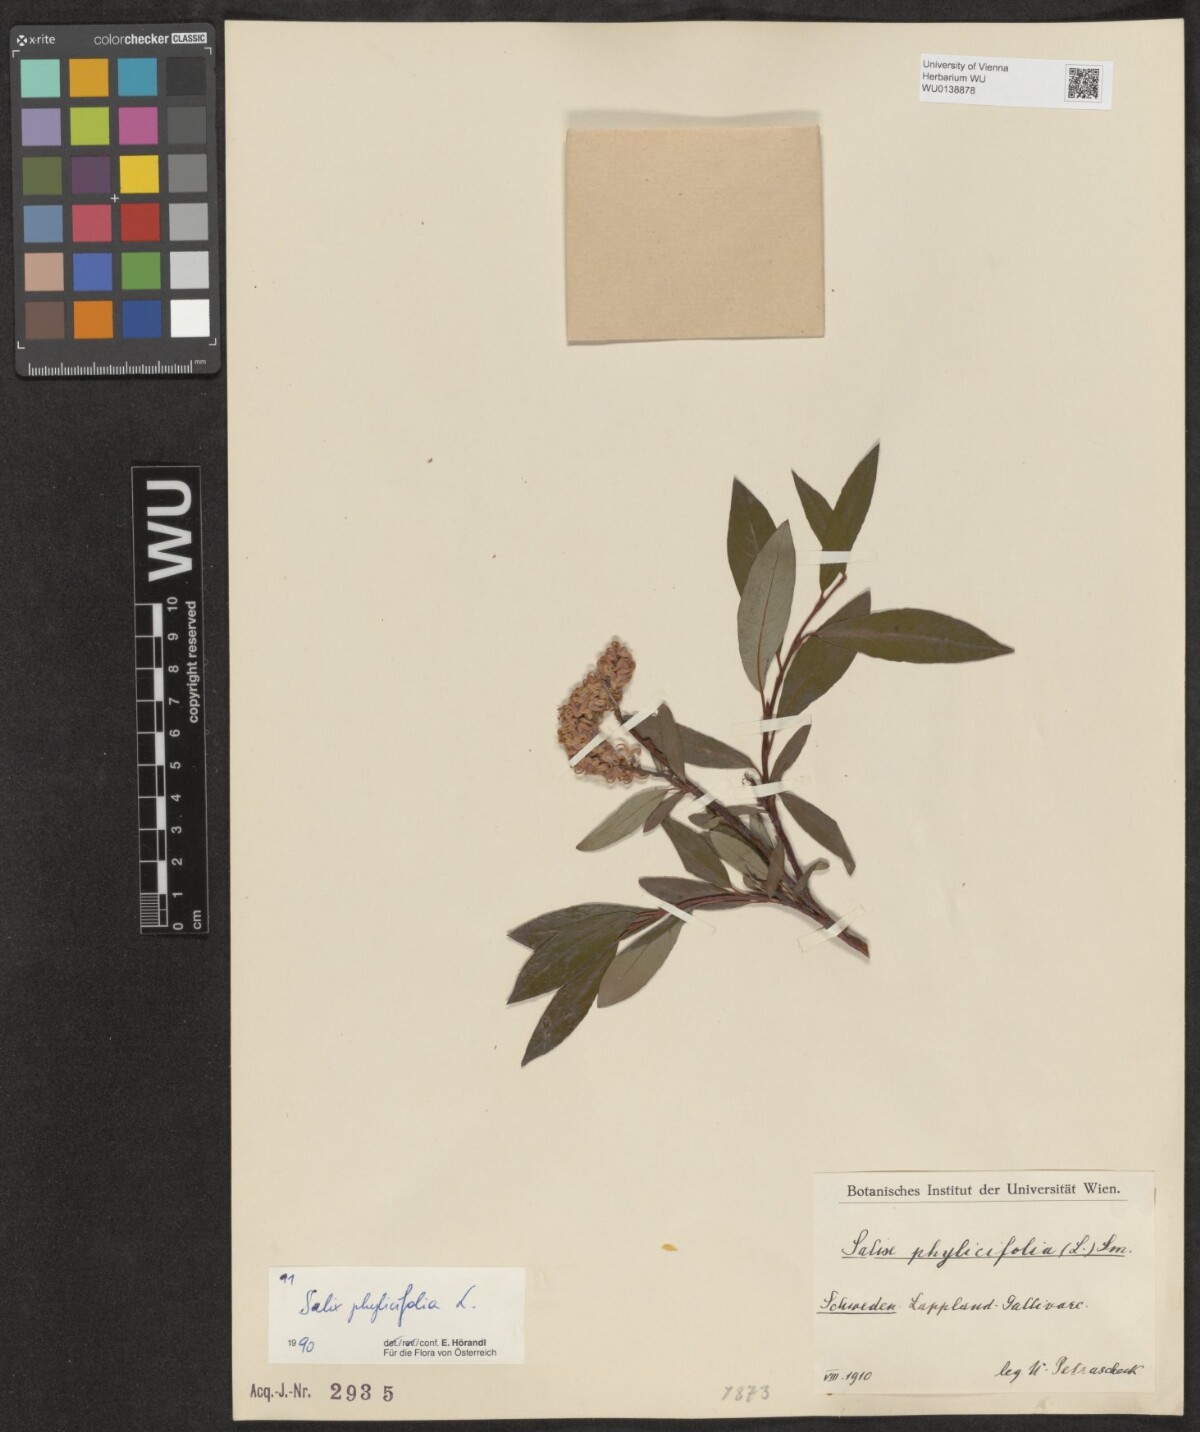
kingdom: Plantae
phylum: Tracheophyta
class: Magnoliopsida
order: Malpighiales
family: Salicaceae
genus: Salix
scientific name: Salix phylicifolia
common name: Tea-leaved willow
